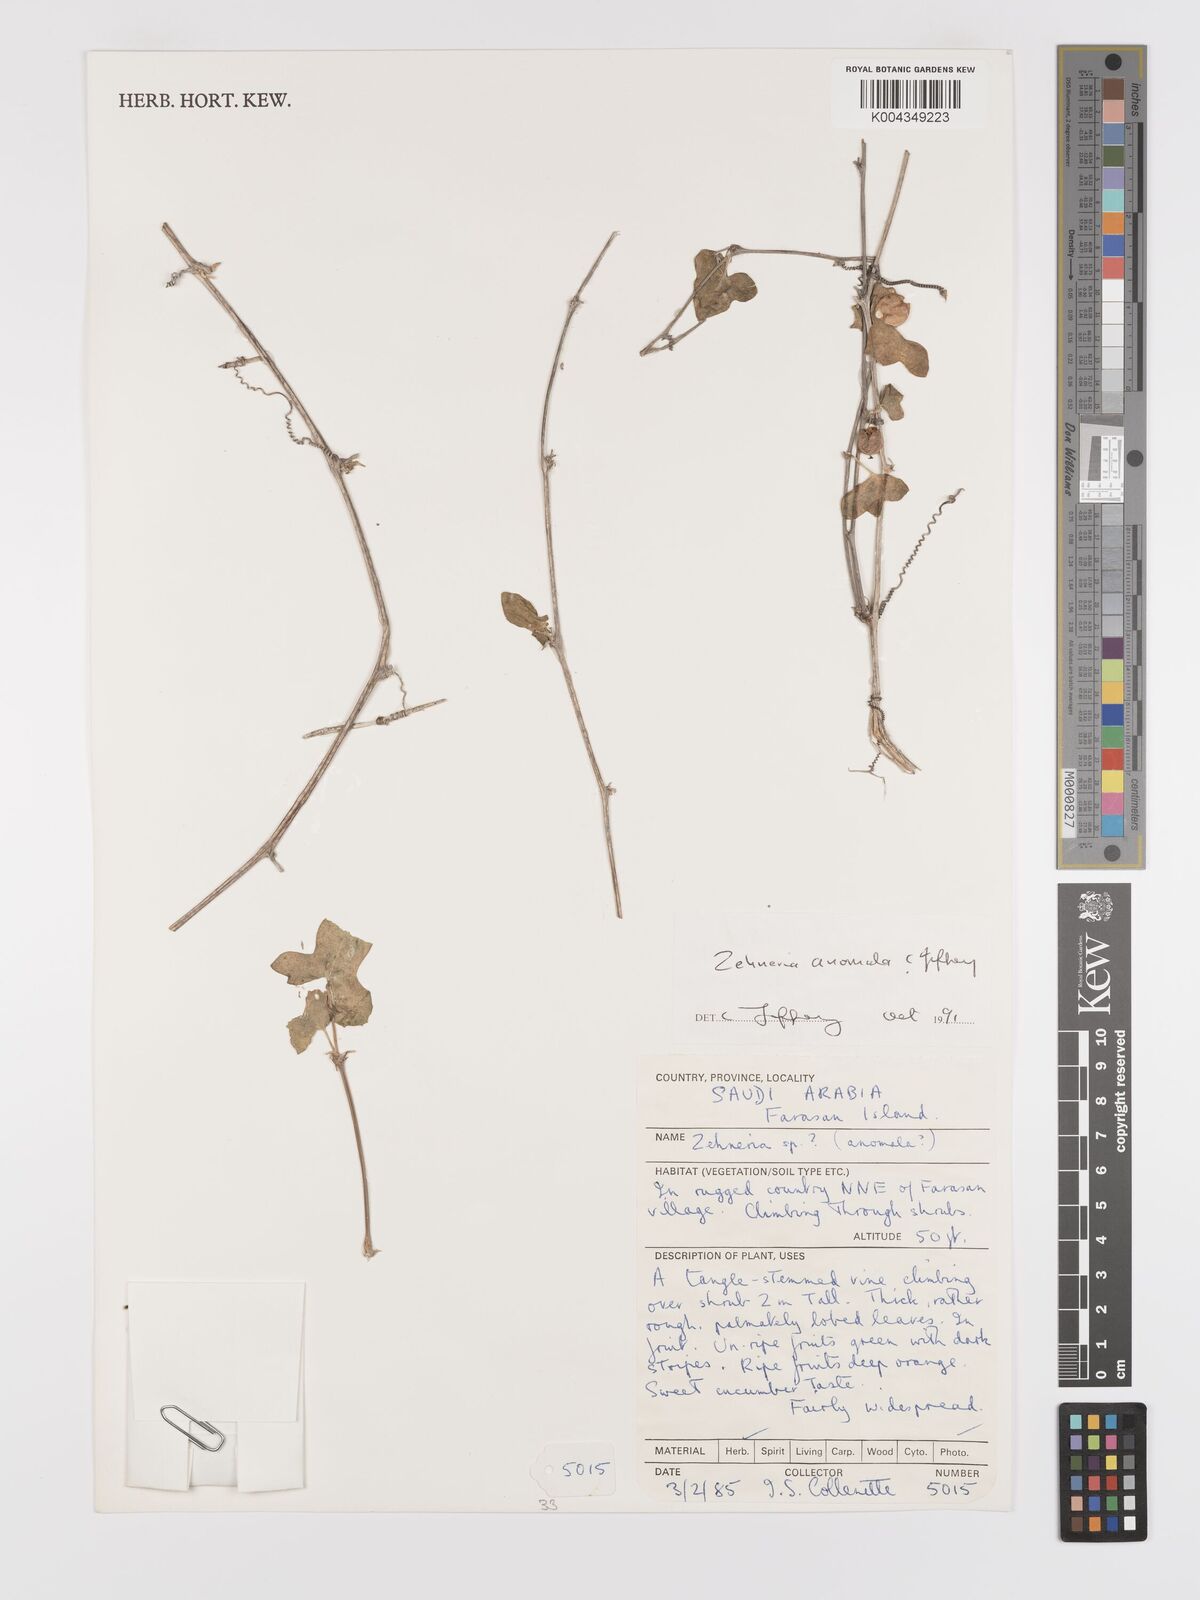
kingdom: Plantae
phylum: Tracheophyta
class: Magnoliopsida
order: Cucurbitales
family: Cucurbitaceae
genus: Zehneria
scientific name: Zehneria anomala
